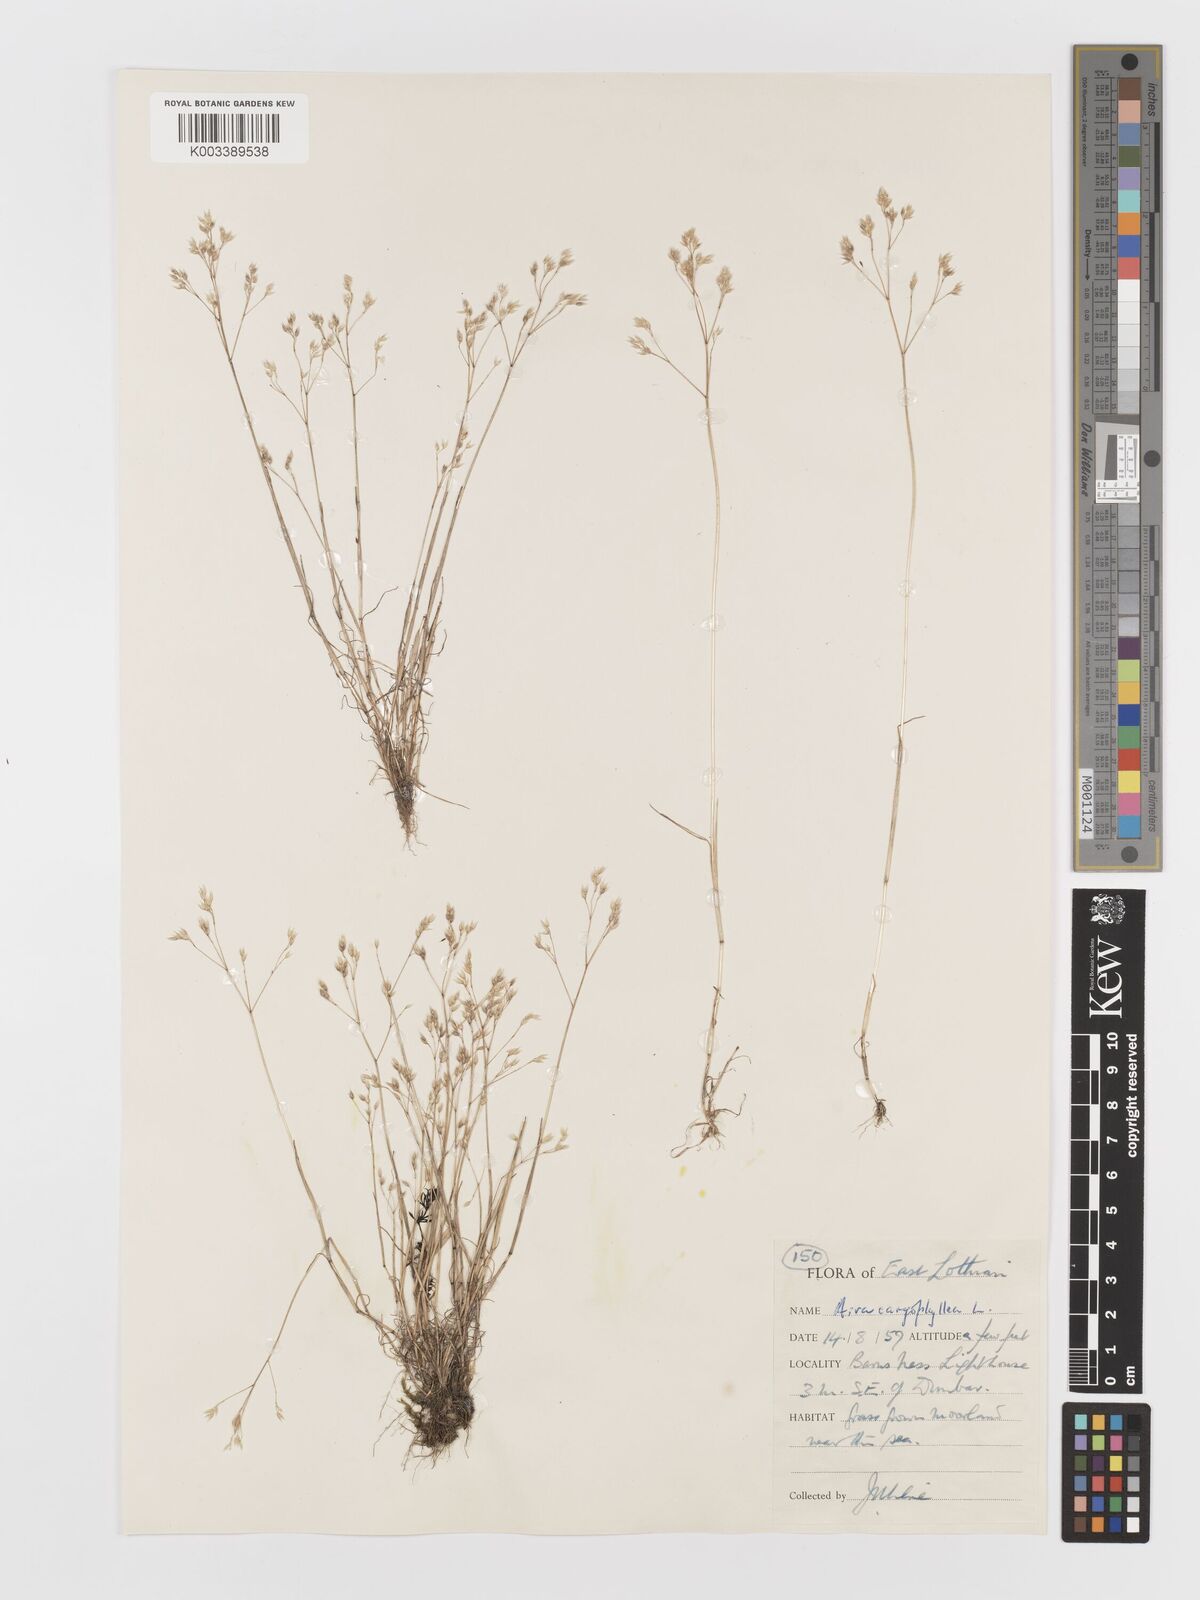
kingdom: Plantae
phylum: Tracheophyta
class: Liliopsida
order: Poales
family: Poaceae
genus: Aira
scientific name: Aira caryophyllea
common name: Silver hairgrass
